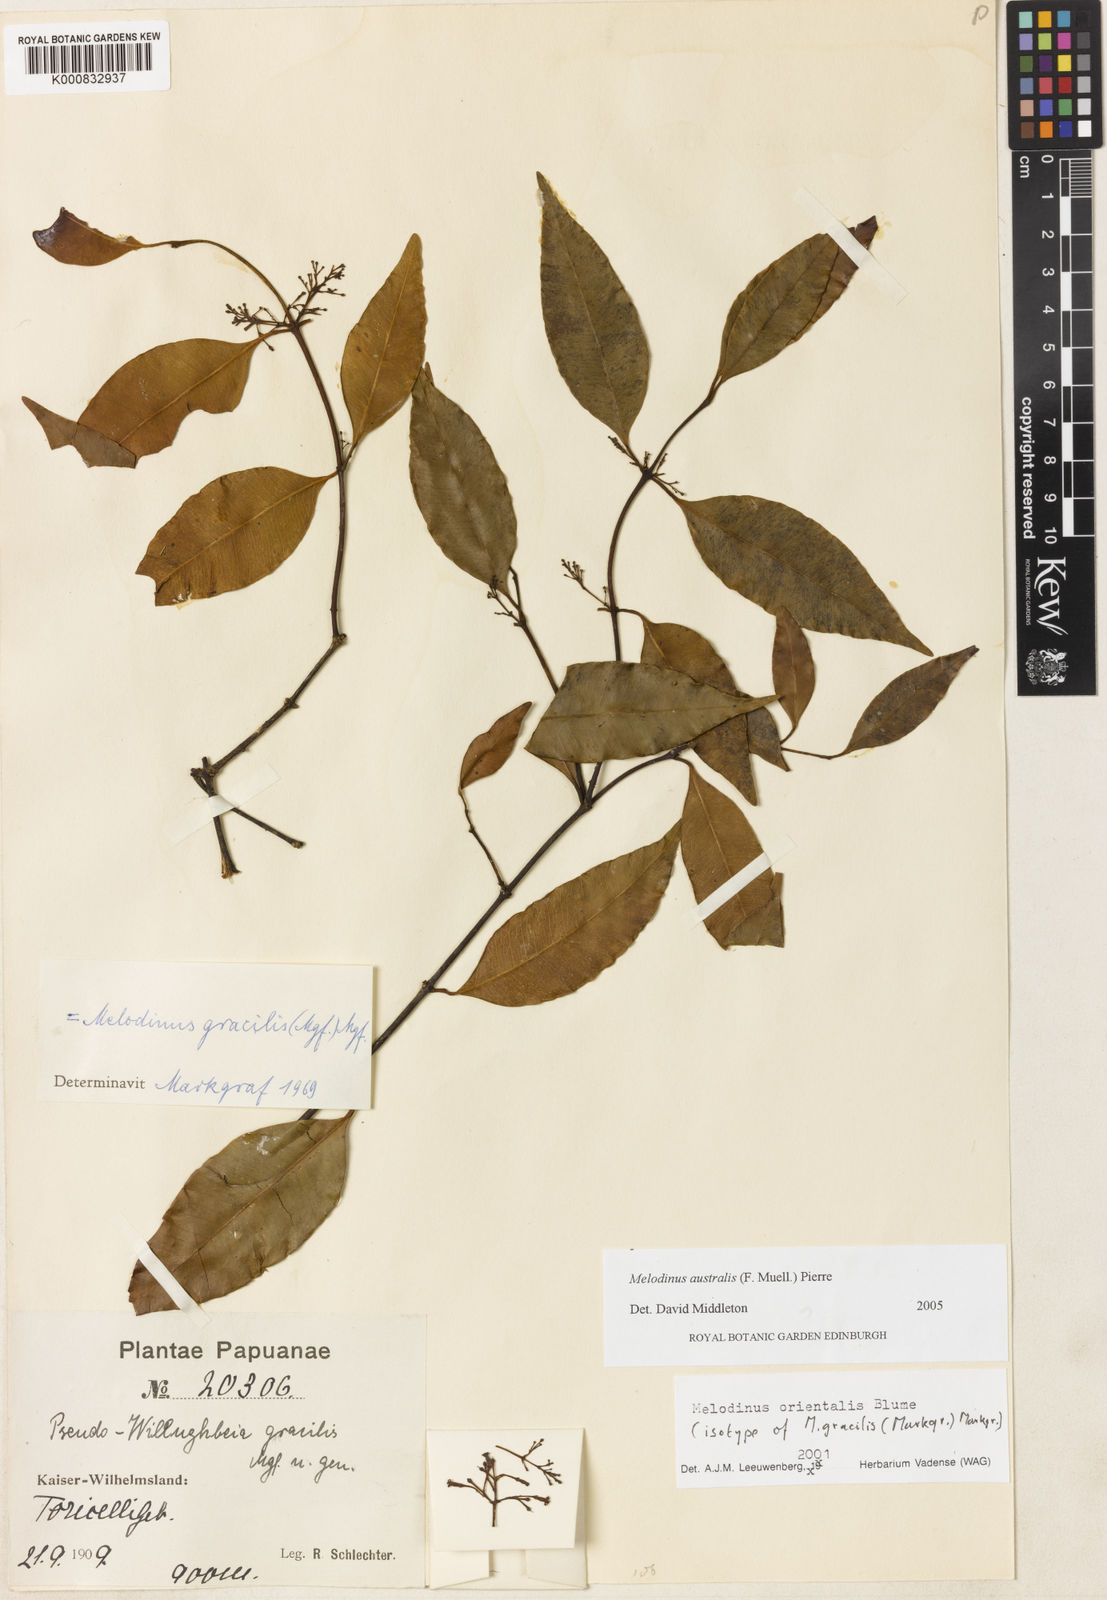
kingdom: Plantae
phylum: Tracheophyta
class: Magnoliopsida
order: Gentianales
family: Apocynaceae
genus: Melodinus
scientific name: Melodinus australis
